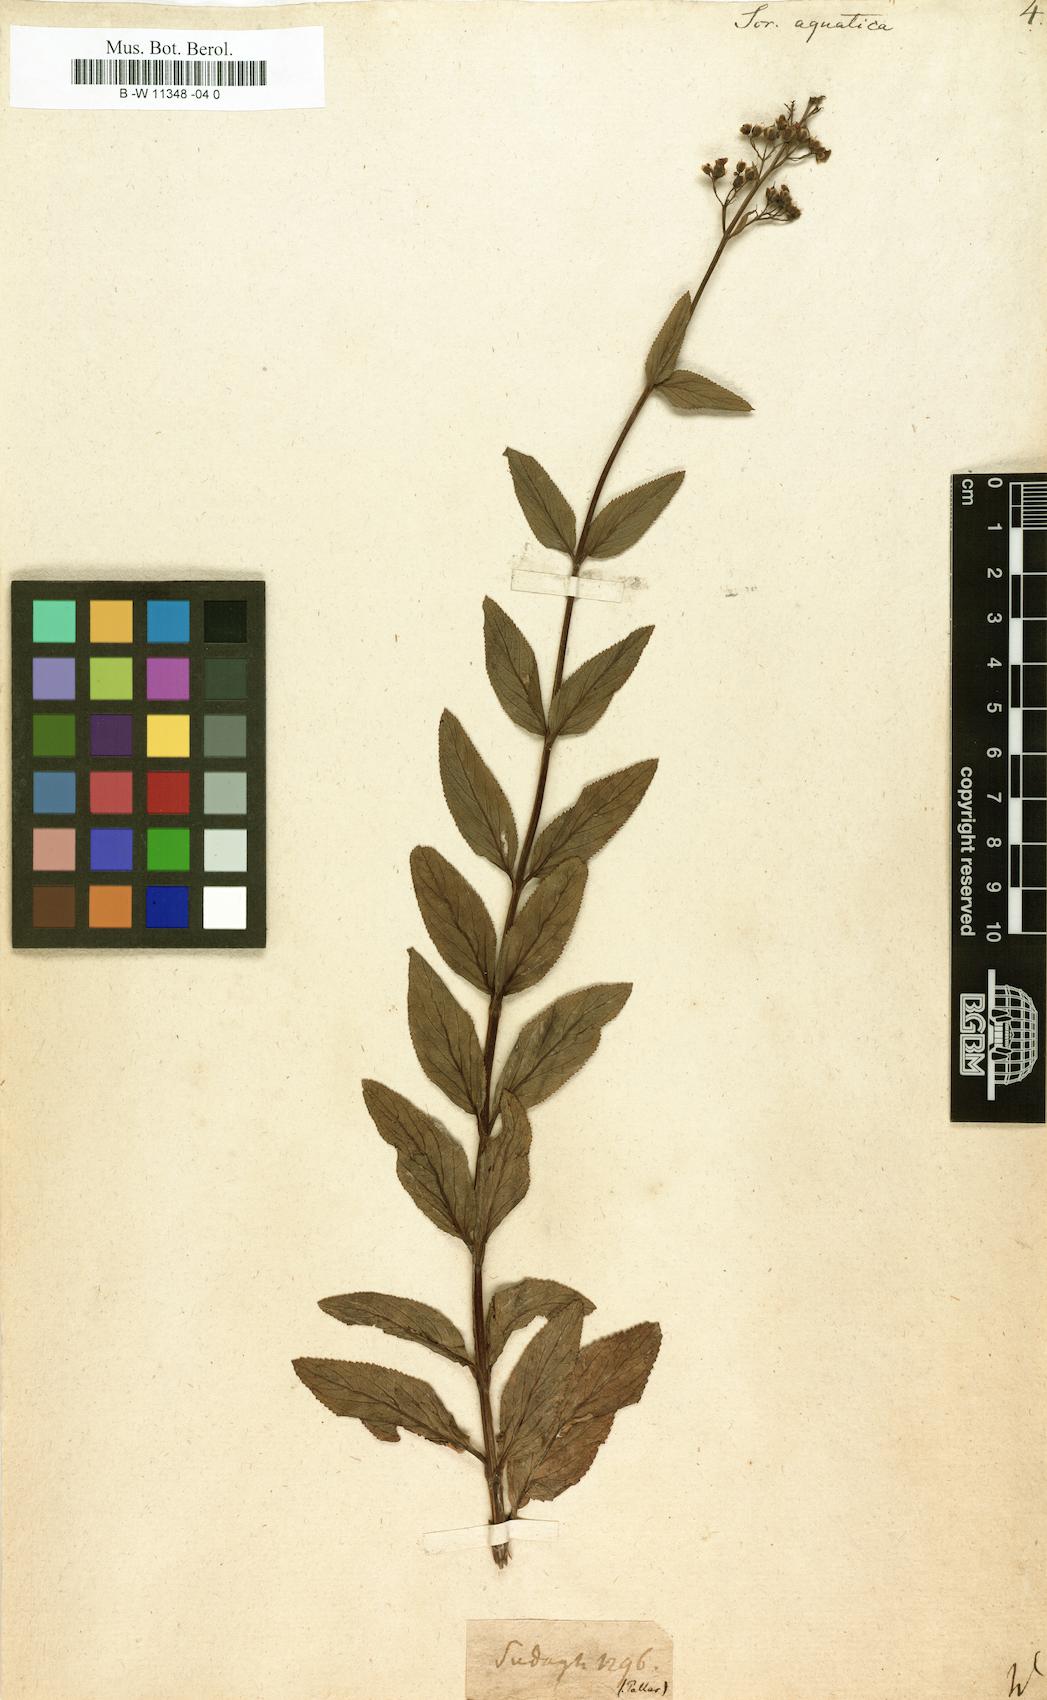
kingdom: Plantae
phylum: Tracheophyta
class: Magnoliopsida
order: Lamiales
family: Scrophulariaceae
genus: Scrophularia
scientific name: Scrophularia umbrosa
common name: Green figwort
